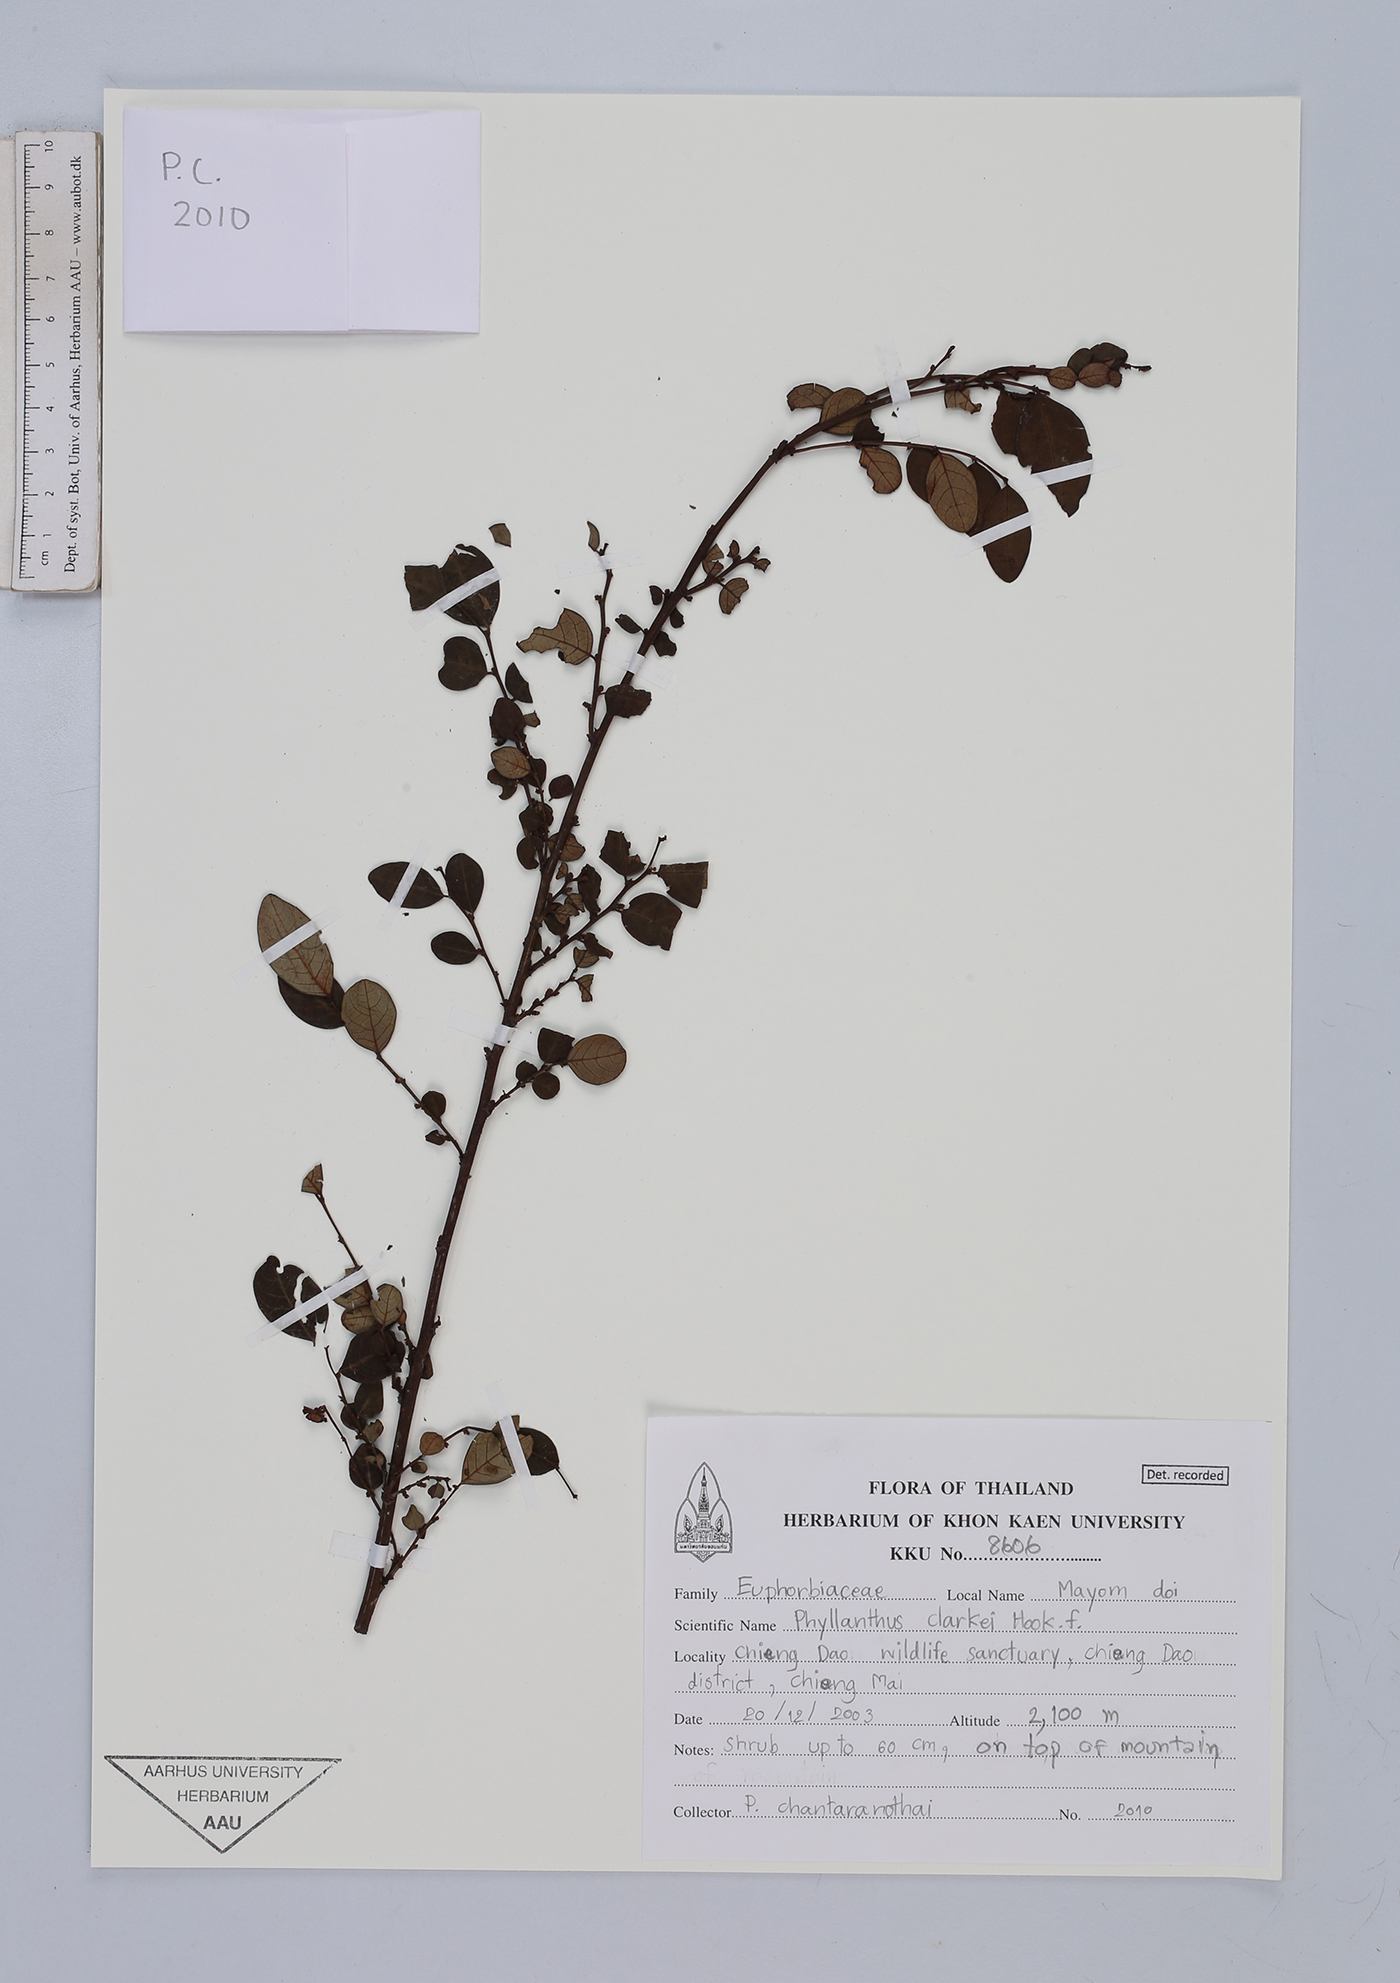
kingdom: Plantae
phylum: Tracheophyta
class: Magnoliopsida
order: Malpighiales
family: Phyllanthaceae
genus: Phyllanthus
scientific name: Phyllanthus clarkei
